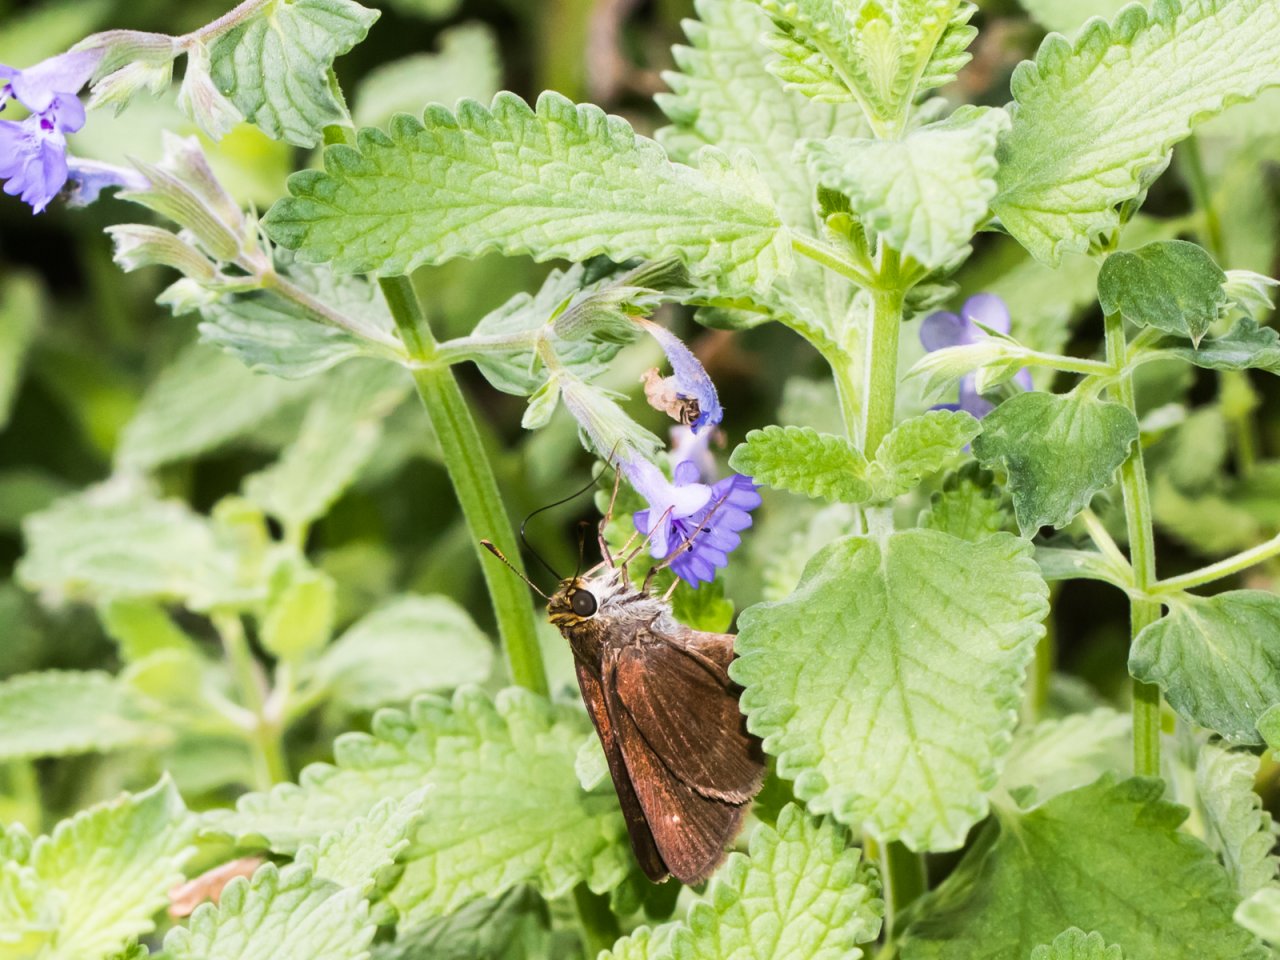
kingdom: Animalia
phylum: Arthropoda
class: Insecta
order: Lepidoptera
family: Hesperiidae
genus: Euphyes
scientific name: Euphyes vestris
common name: Dun Skipper
